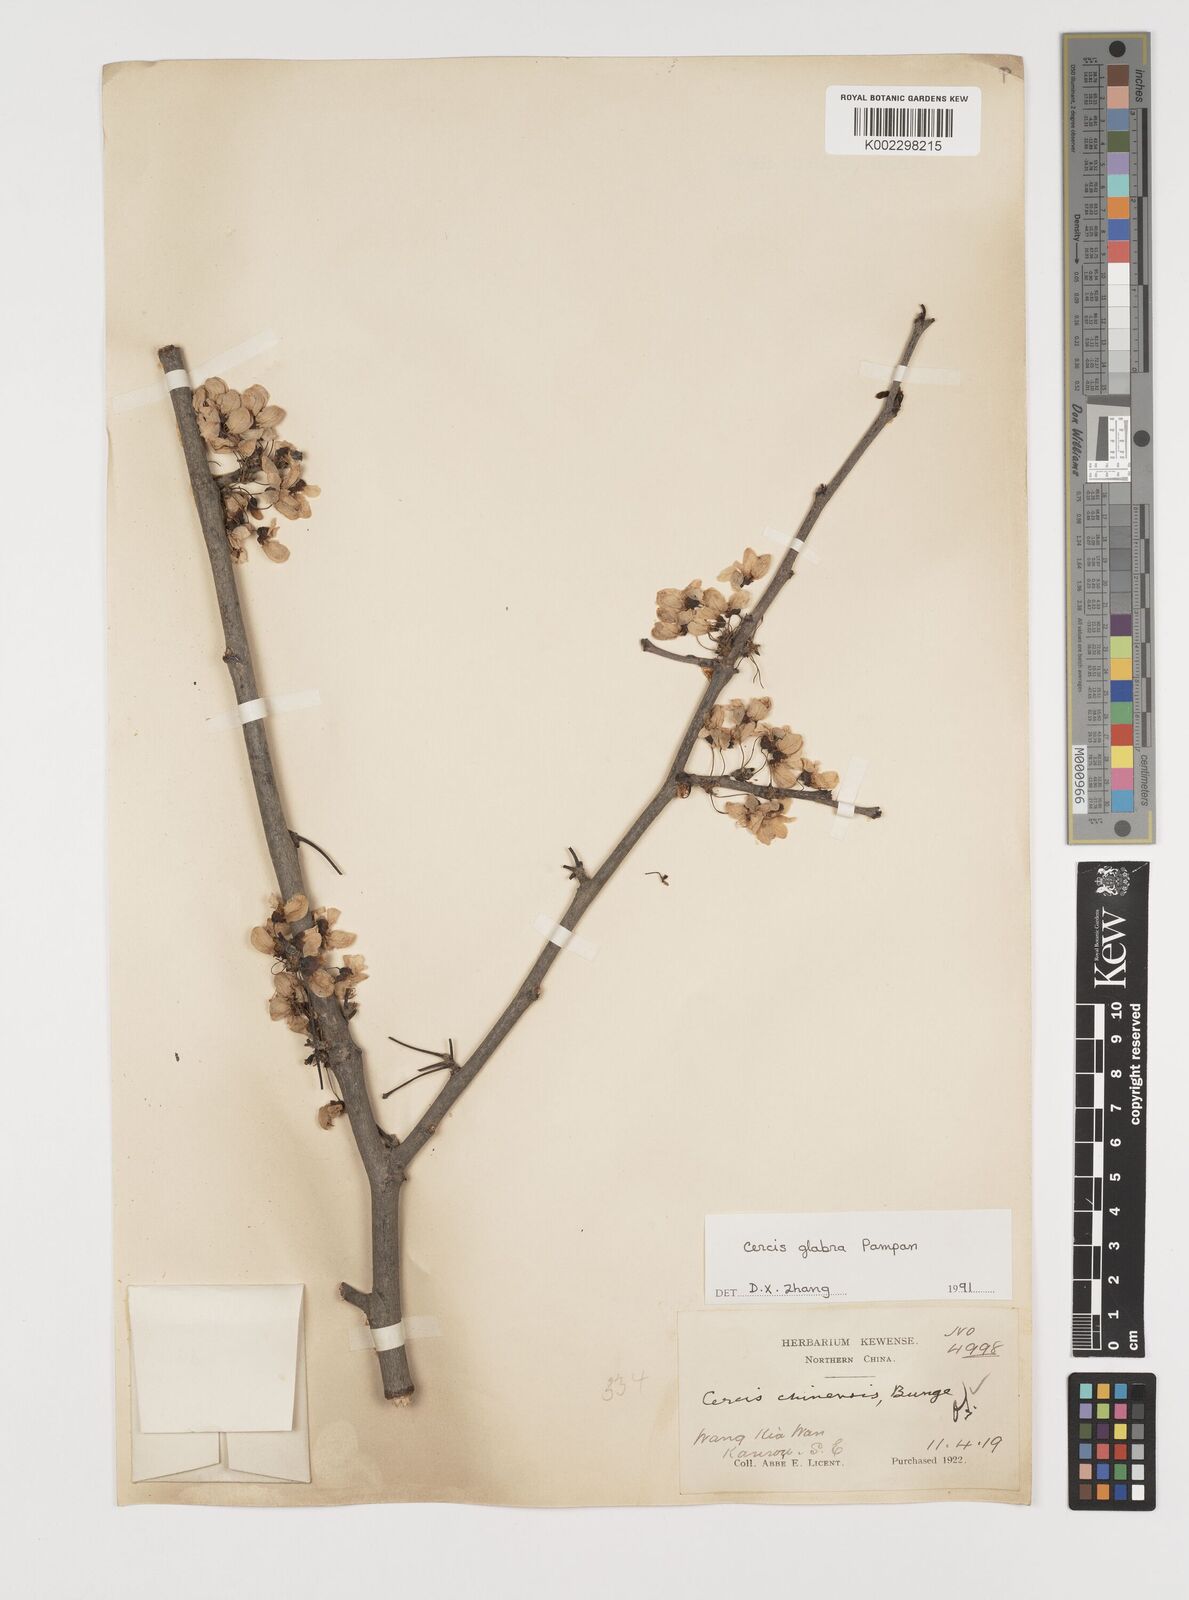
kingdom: Plantae
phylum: Tracheophyta
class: Magnoliopsida
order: Fabales
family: Fabaceae
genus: Cercis
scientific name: Cercis glabra
